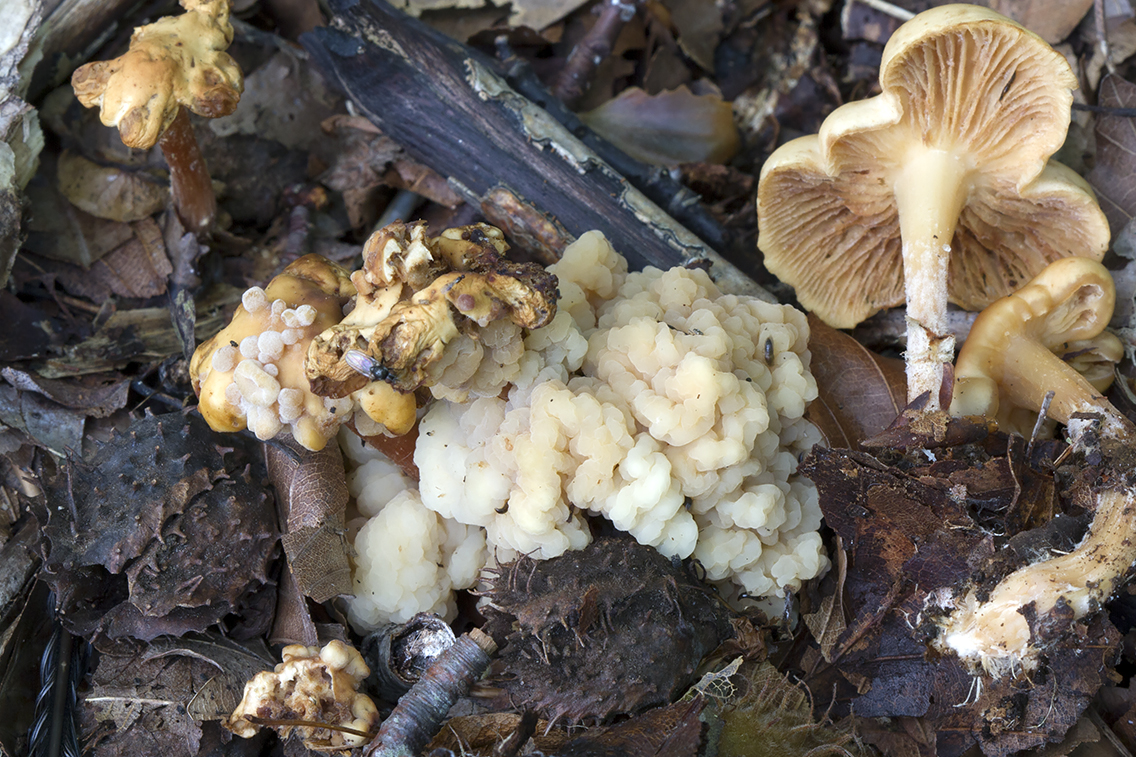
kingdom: Fungi
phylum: Basidiomycota
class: Tremellomycetes
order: Filobasidiales
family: Filobasidiaceae
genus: Syzygospora
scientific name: Syzygospora tumefaciens
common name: fladhatte-snyltehjerne
